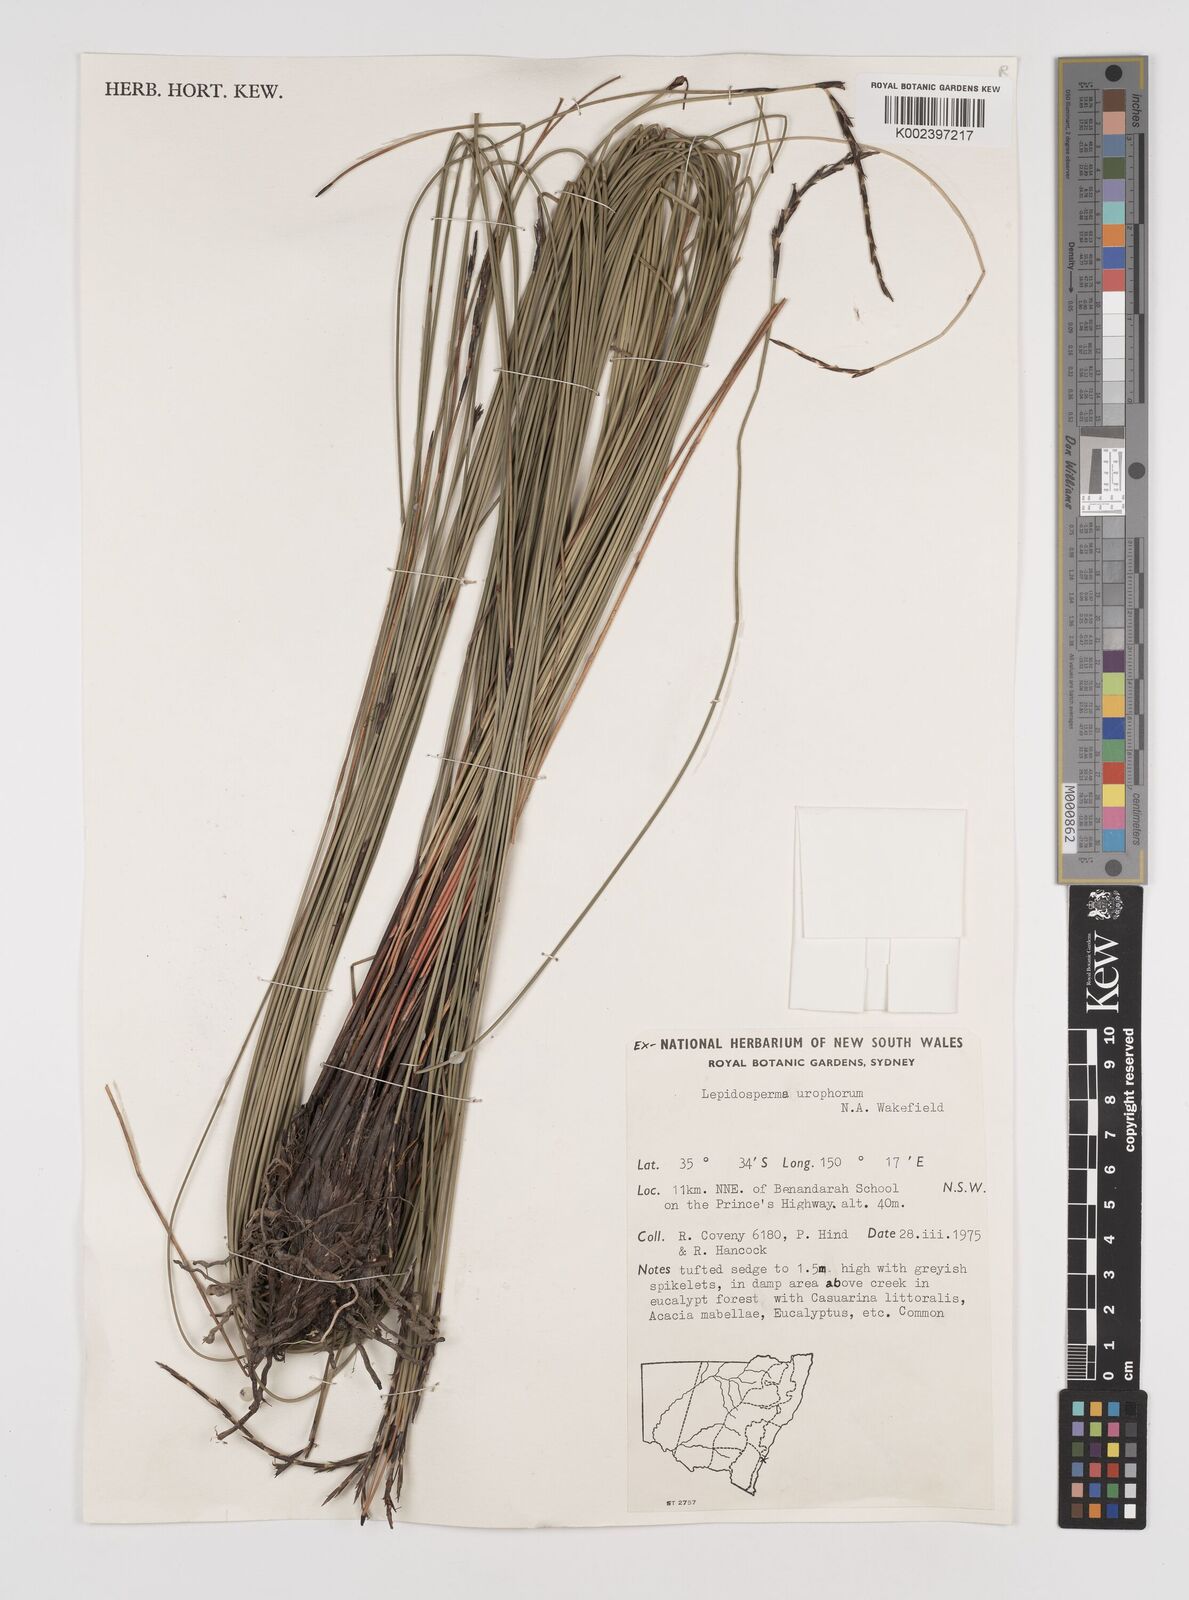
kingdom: Plantae
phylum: Tracheophyta
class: Liliopsida
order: Poales
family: Cyperaceae
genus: Lepidosperma
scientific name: Lepidosperma urophorum
